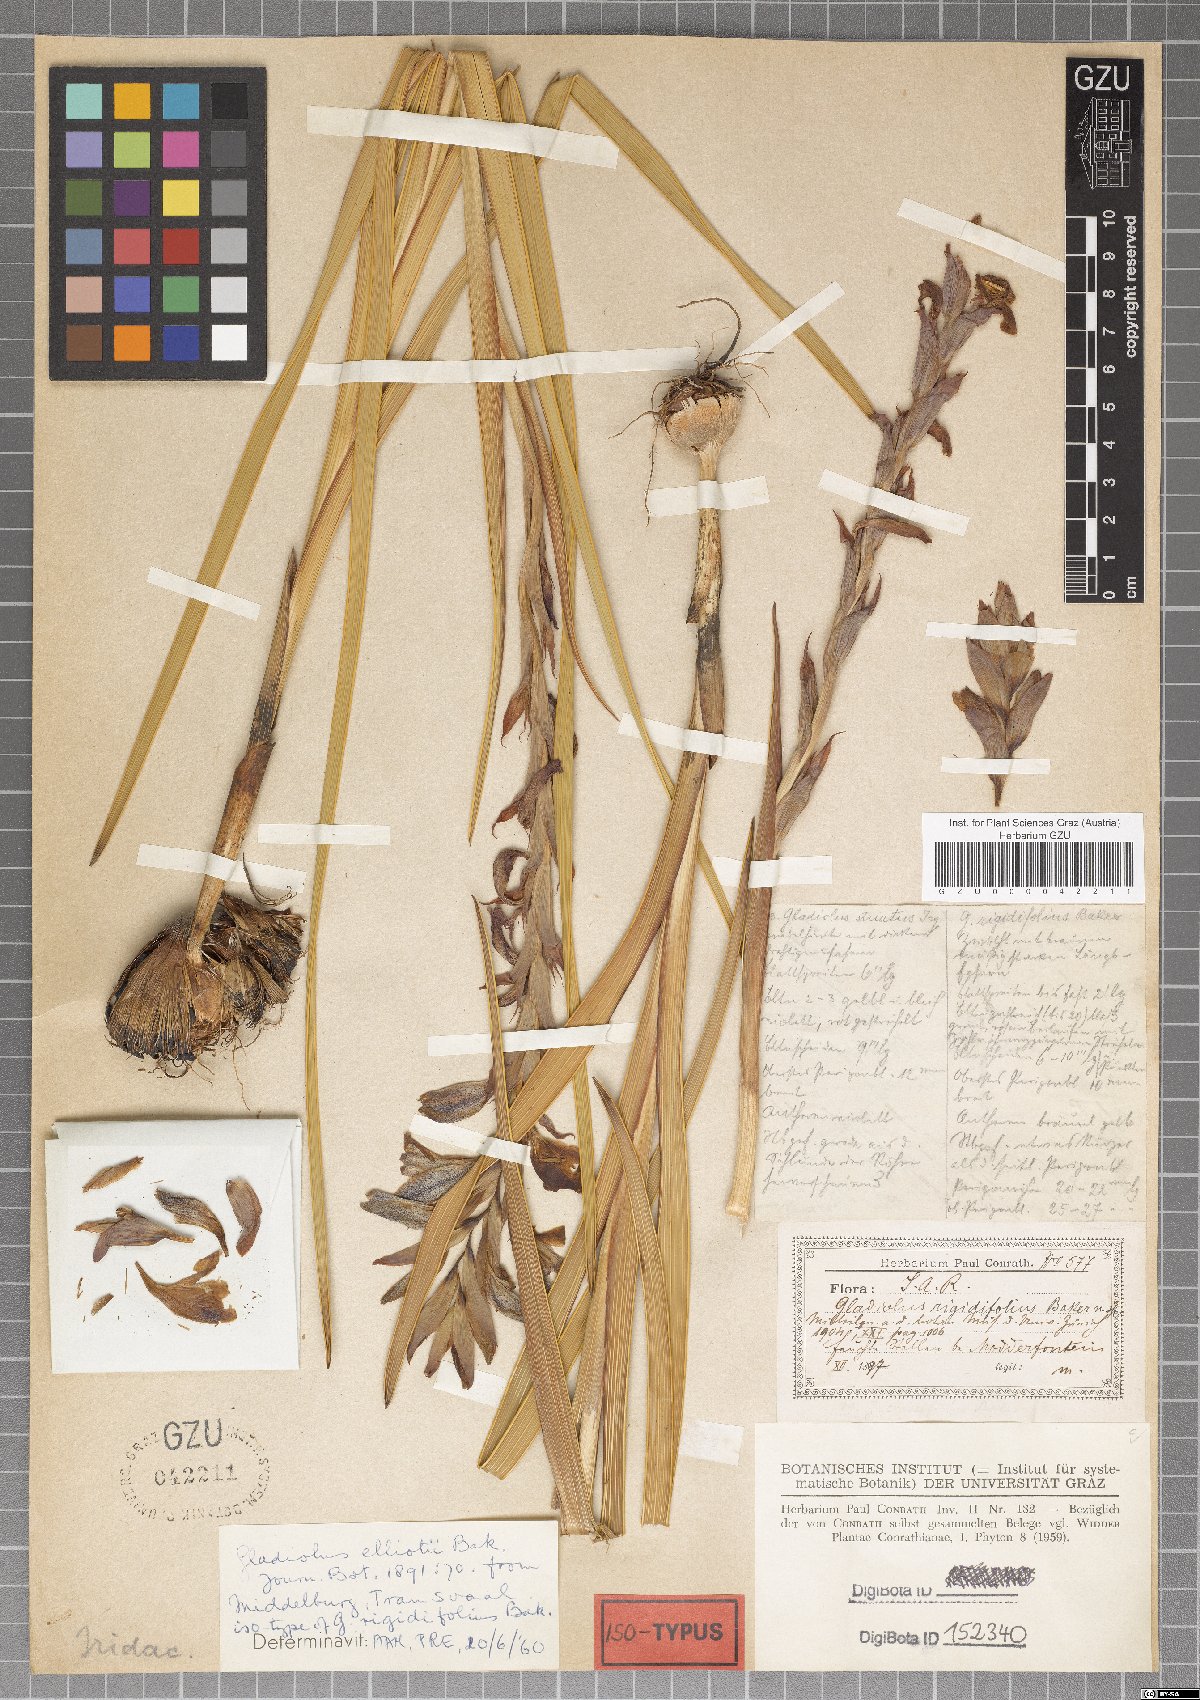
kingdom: Plantae
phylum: Tracheophyta
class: Liliopsida
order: Asparagales
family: Iridaceae
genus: Gladiolus
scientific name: Gladiolus sericeovillosus
